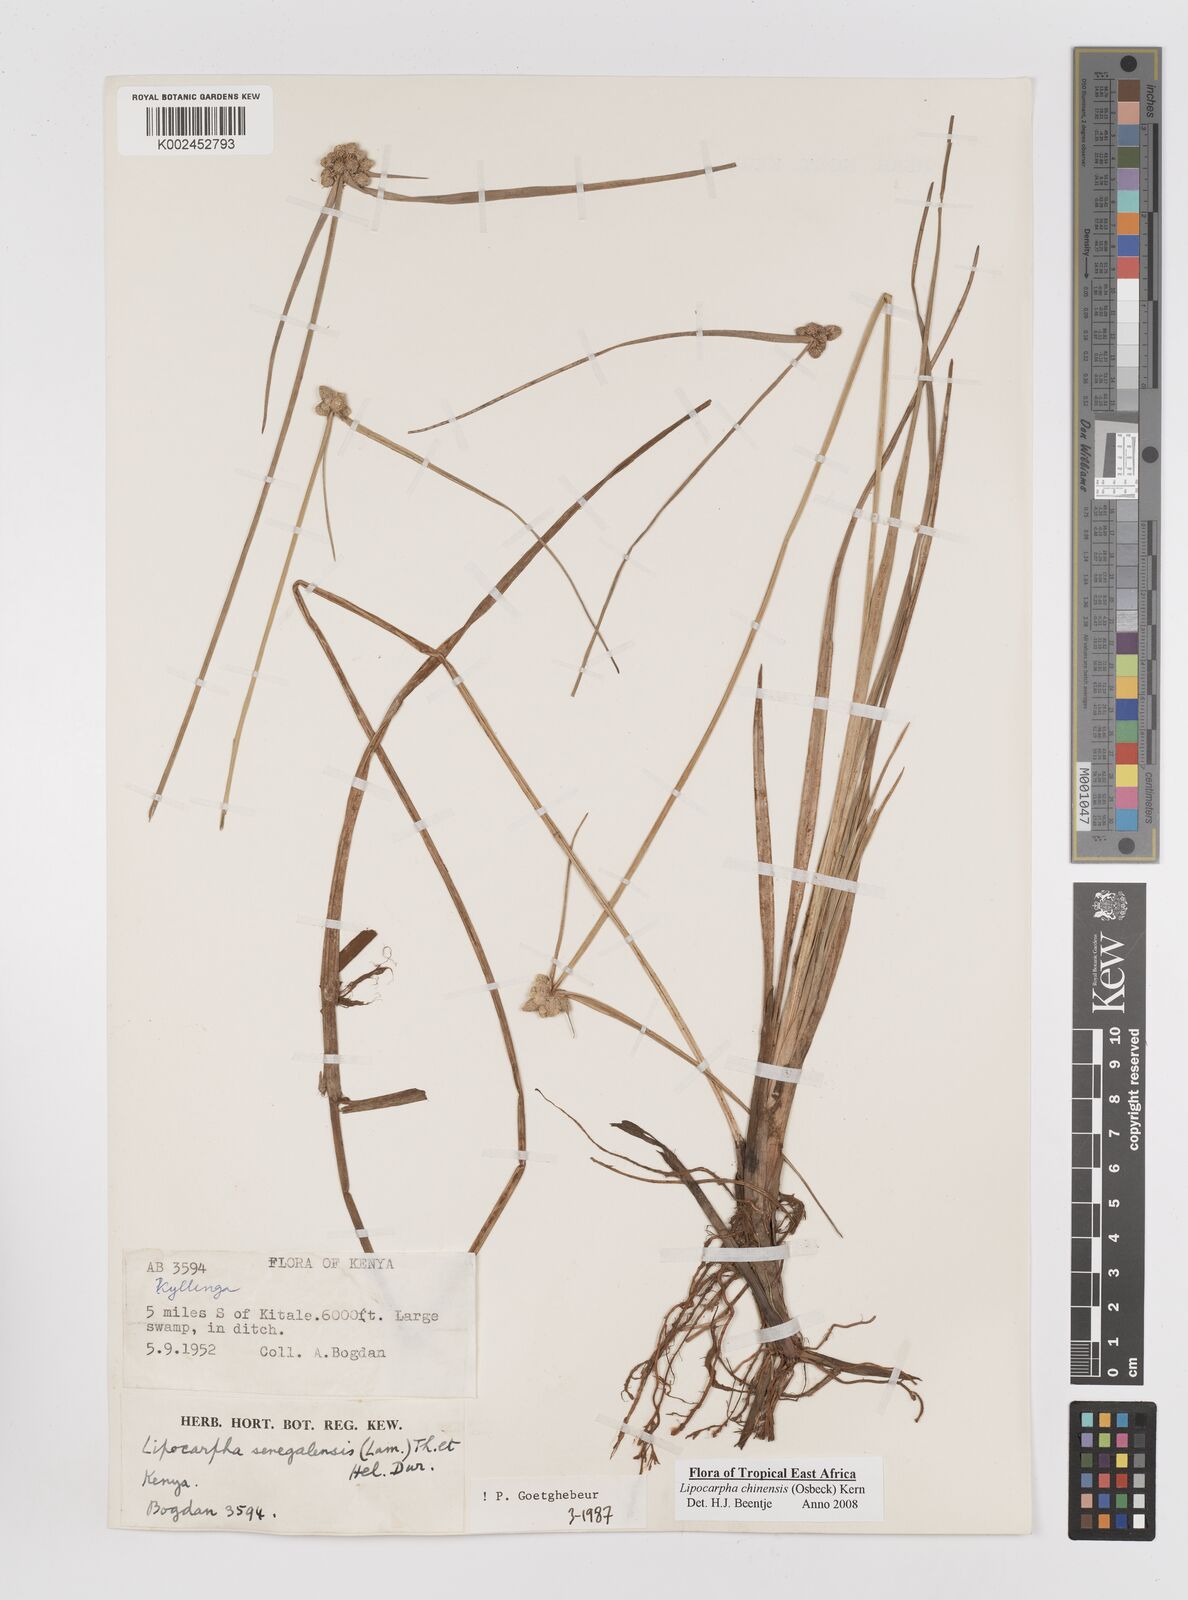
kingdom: Plantae
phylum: Tracheophyta
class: Liliopsida
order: Poales
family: Cyperaceae
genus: Cyperus
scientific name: Cyperus albescens
